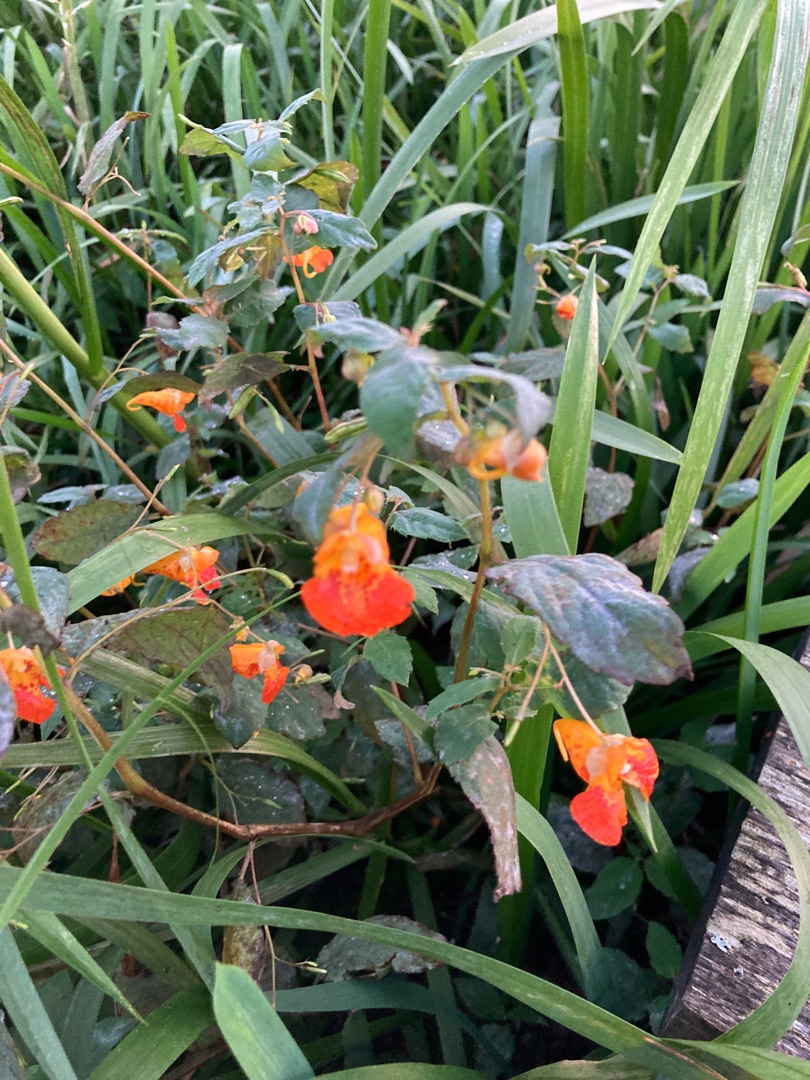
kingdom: Plantae
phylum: Tracheophyta
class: Magnoliopsida
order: Ericales
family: Balsaminaceae
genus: Impatiens
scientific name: Impatiens capensis
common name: Orange-balsamin
